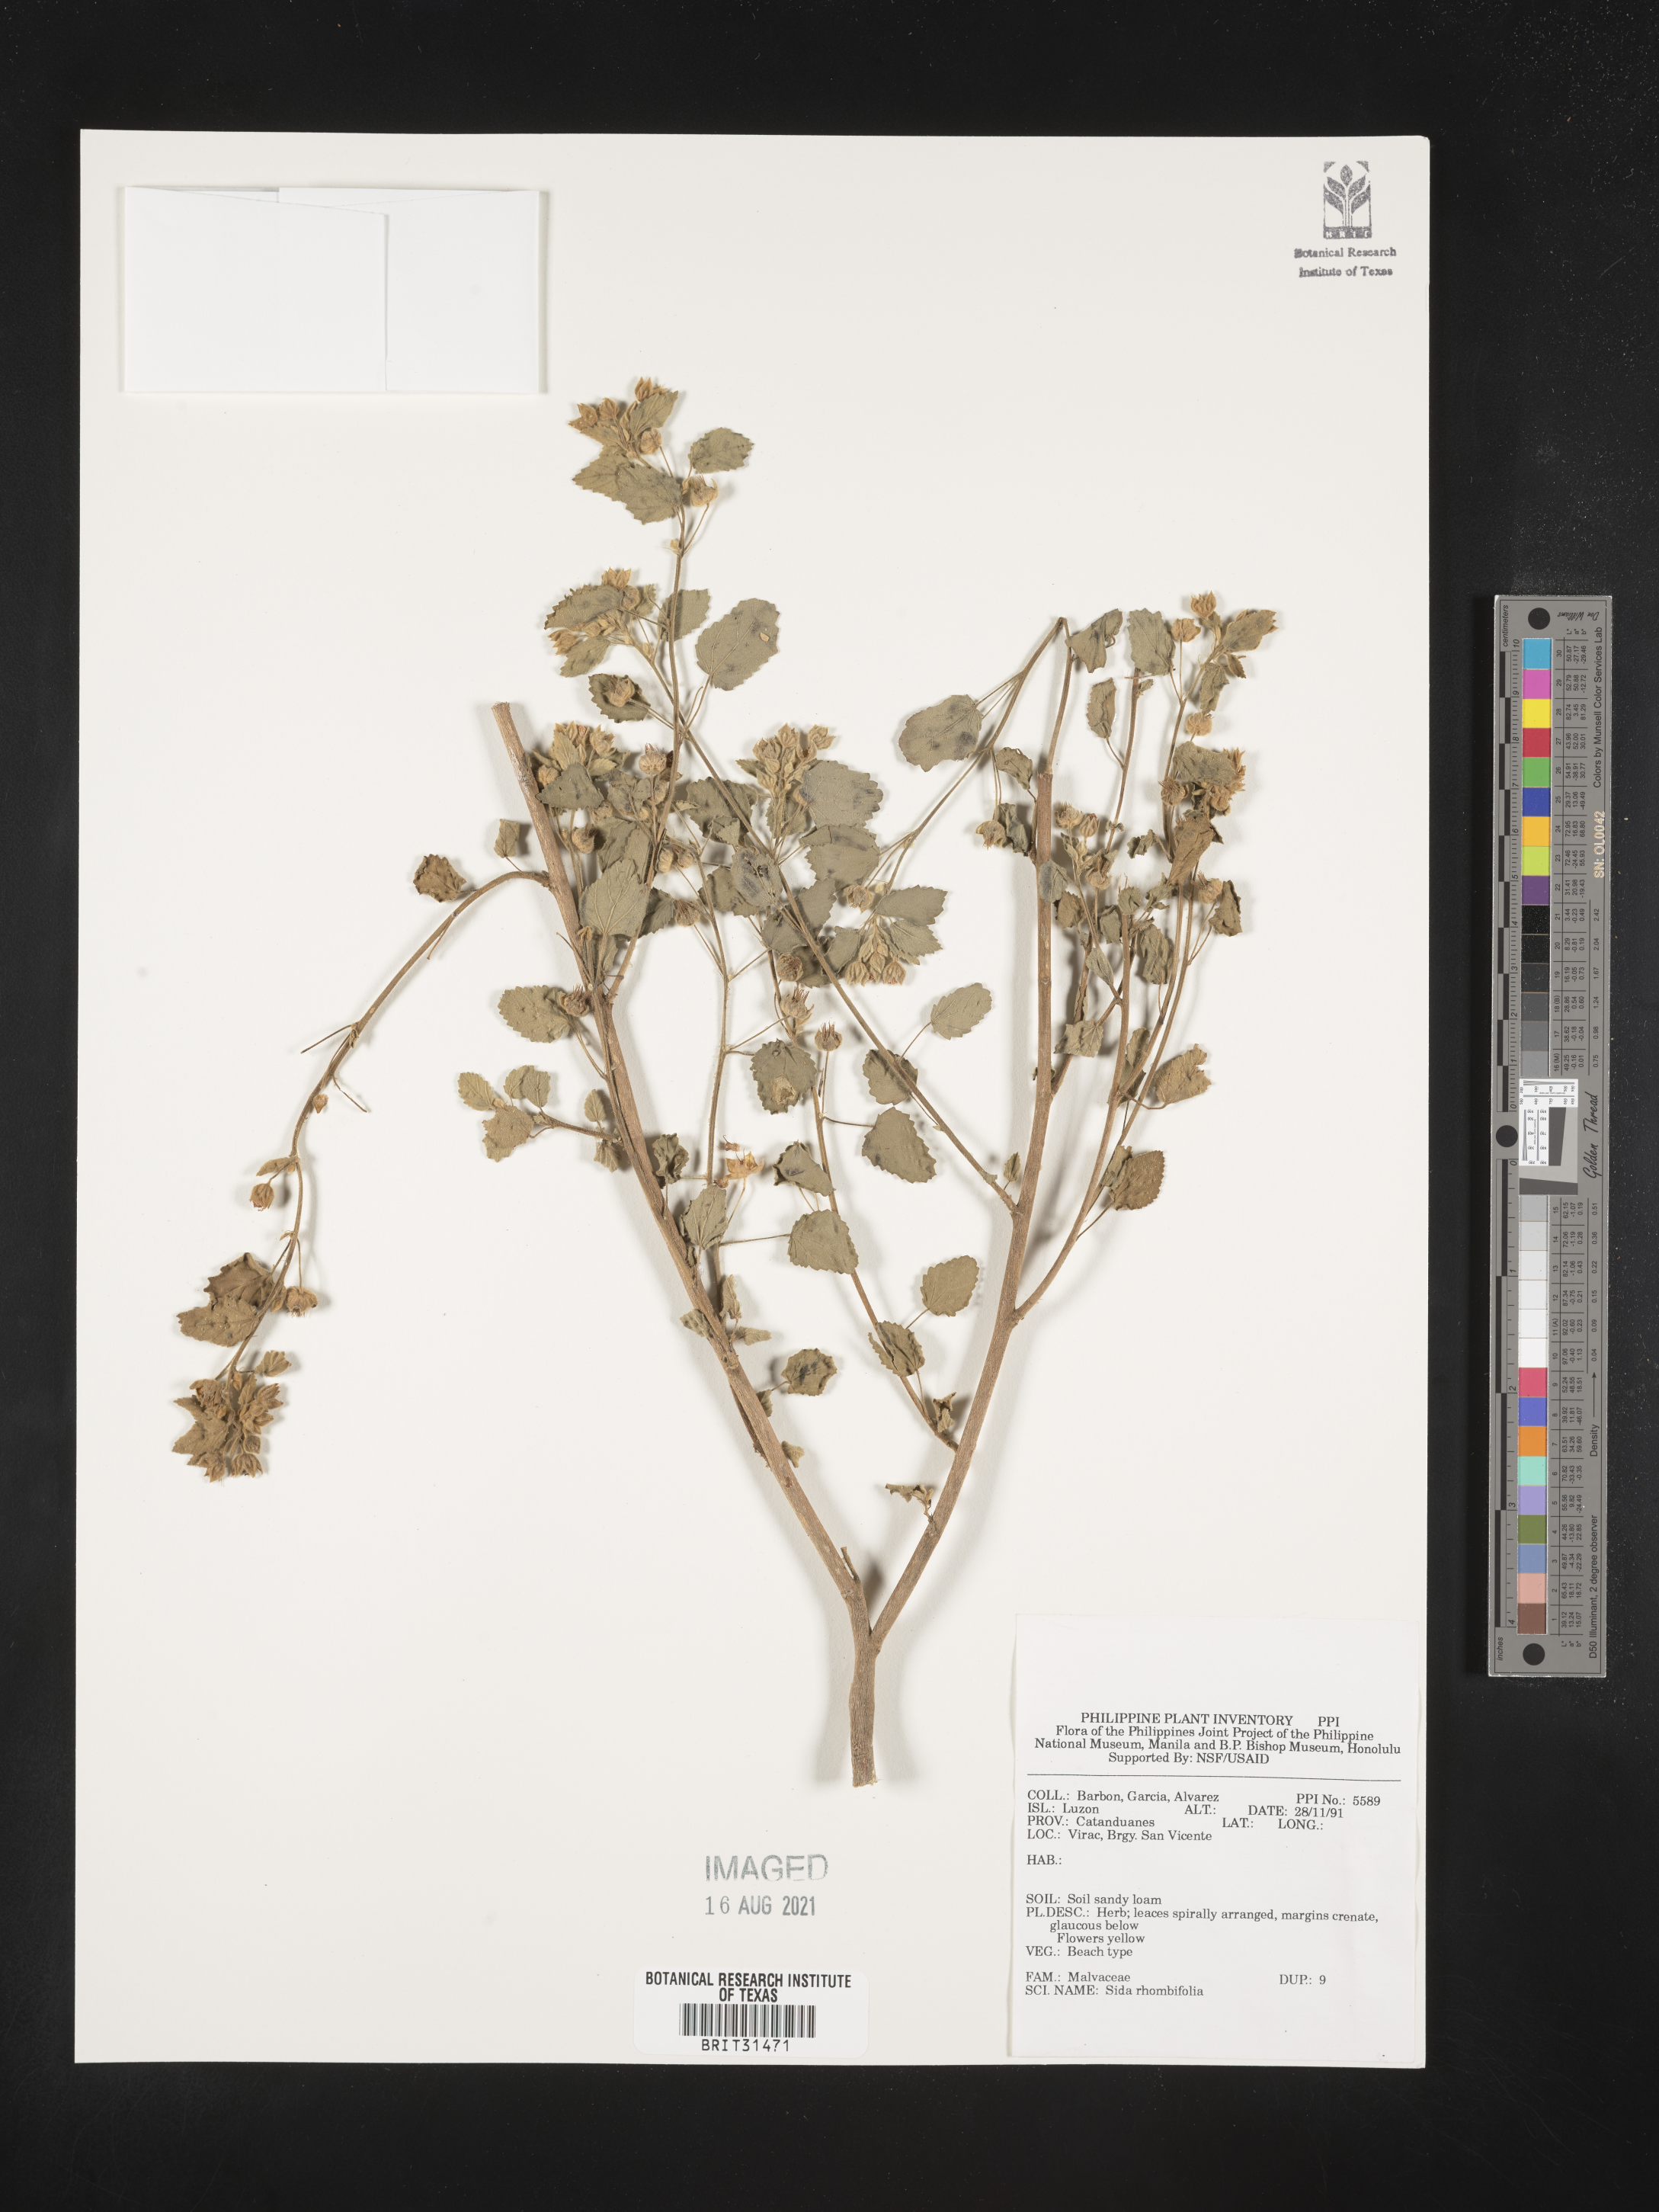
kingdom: Plantae
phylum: Tracheophyta
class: Magnoliopsida
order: Malvales
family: Malvaceae
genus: Sida
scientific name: Sida rhombifolia
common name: Queensland-hemp
